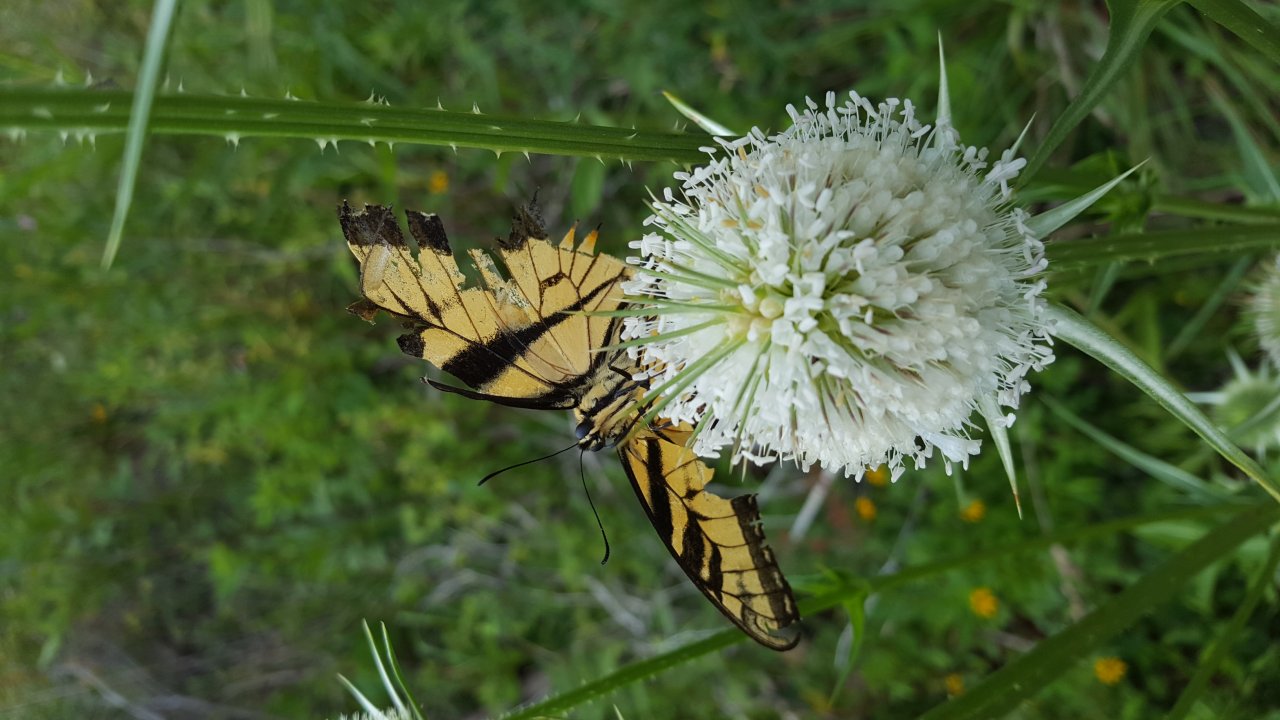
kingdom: Animalia
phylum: Arthropoda
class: Insecta
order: Lepidoptera
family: Papilionidae
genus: Pterourus
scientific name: Pterourus glaucus
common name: Eastern Tiger Swallowtail
